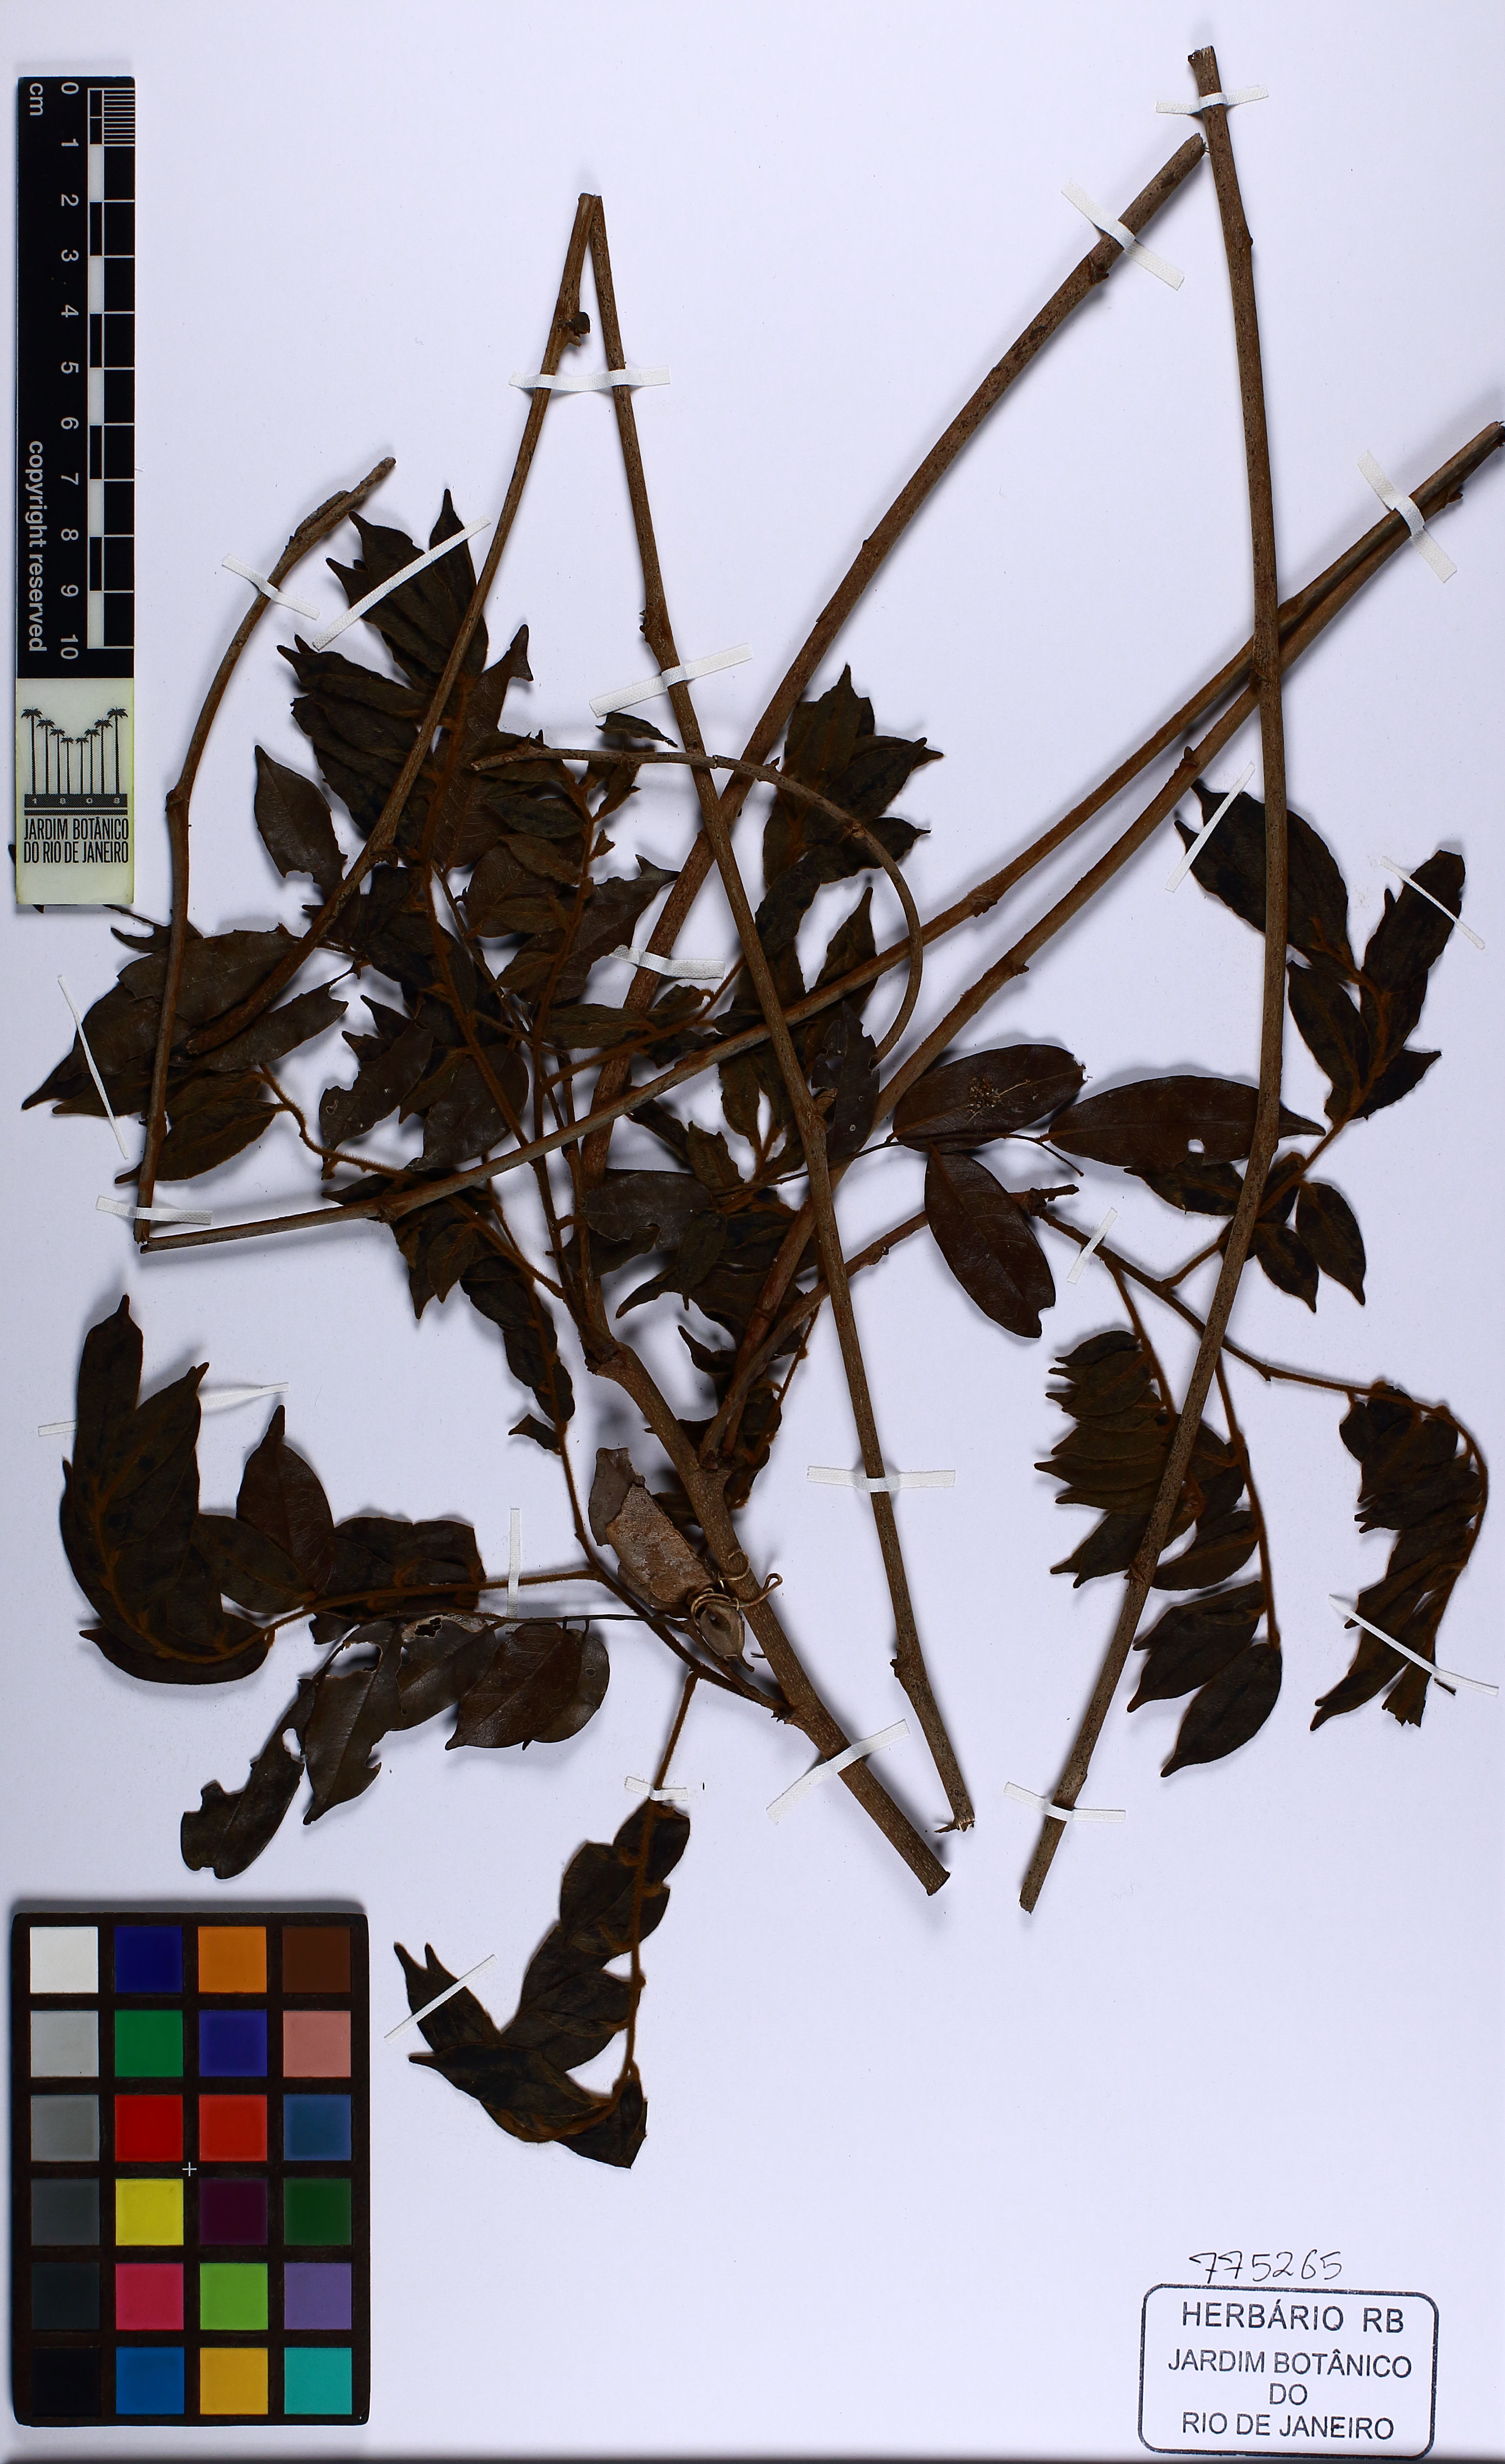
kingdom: Plantae
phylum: Tracheophyta
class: Magnoliopsida
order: Fabales
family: Fabaceae
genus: Machaerium
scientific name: Machaerium brasiliense
